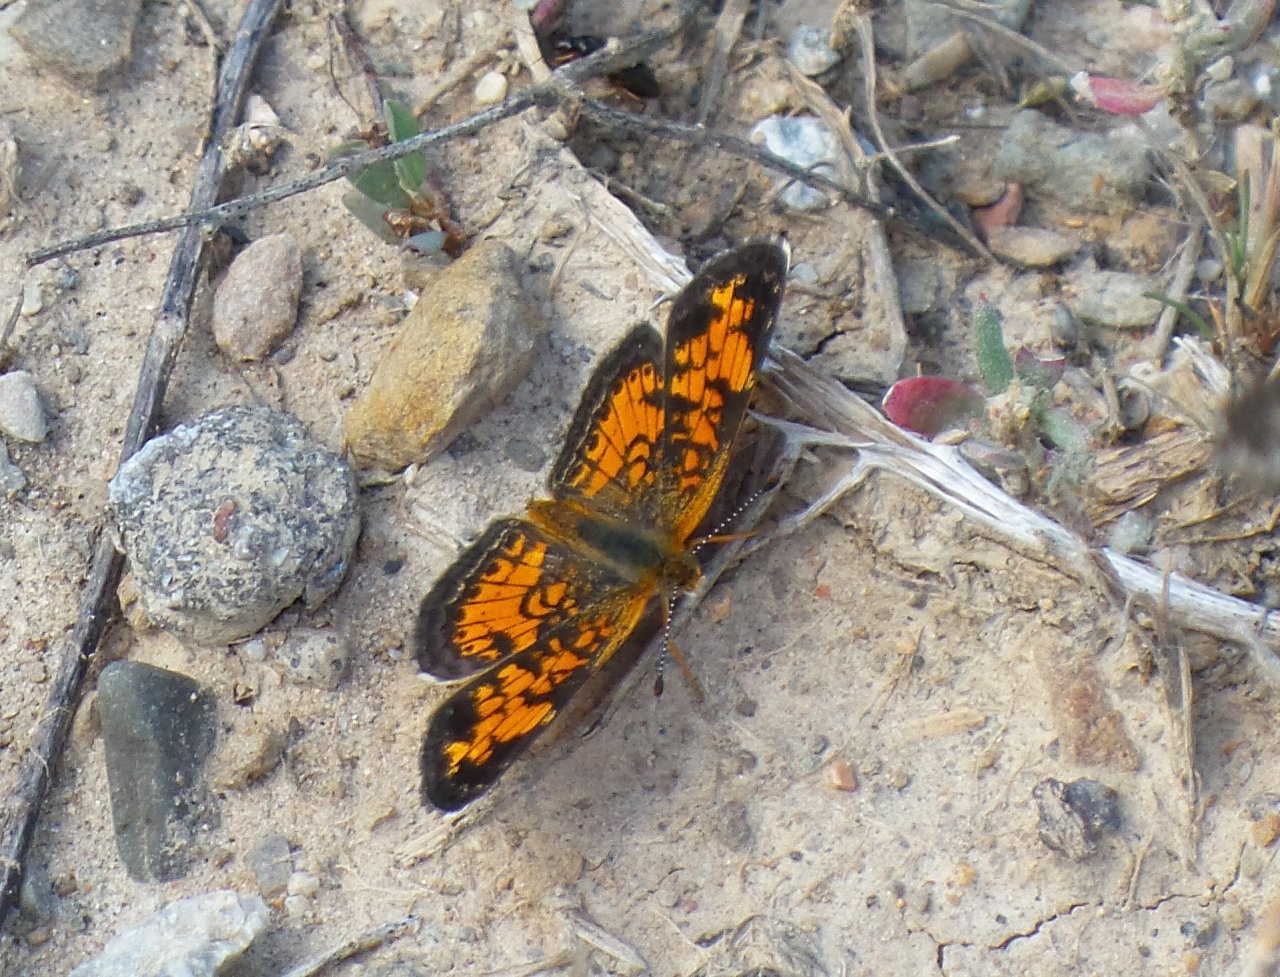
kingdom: Animalia
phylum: Arthropoda
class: Insecta
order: Lepidoptera
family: Nymphalidae
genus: Phyciodes
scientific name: Phyciodes tharos
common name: Pearl Crescent
